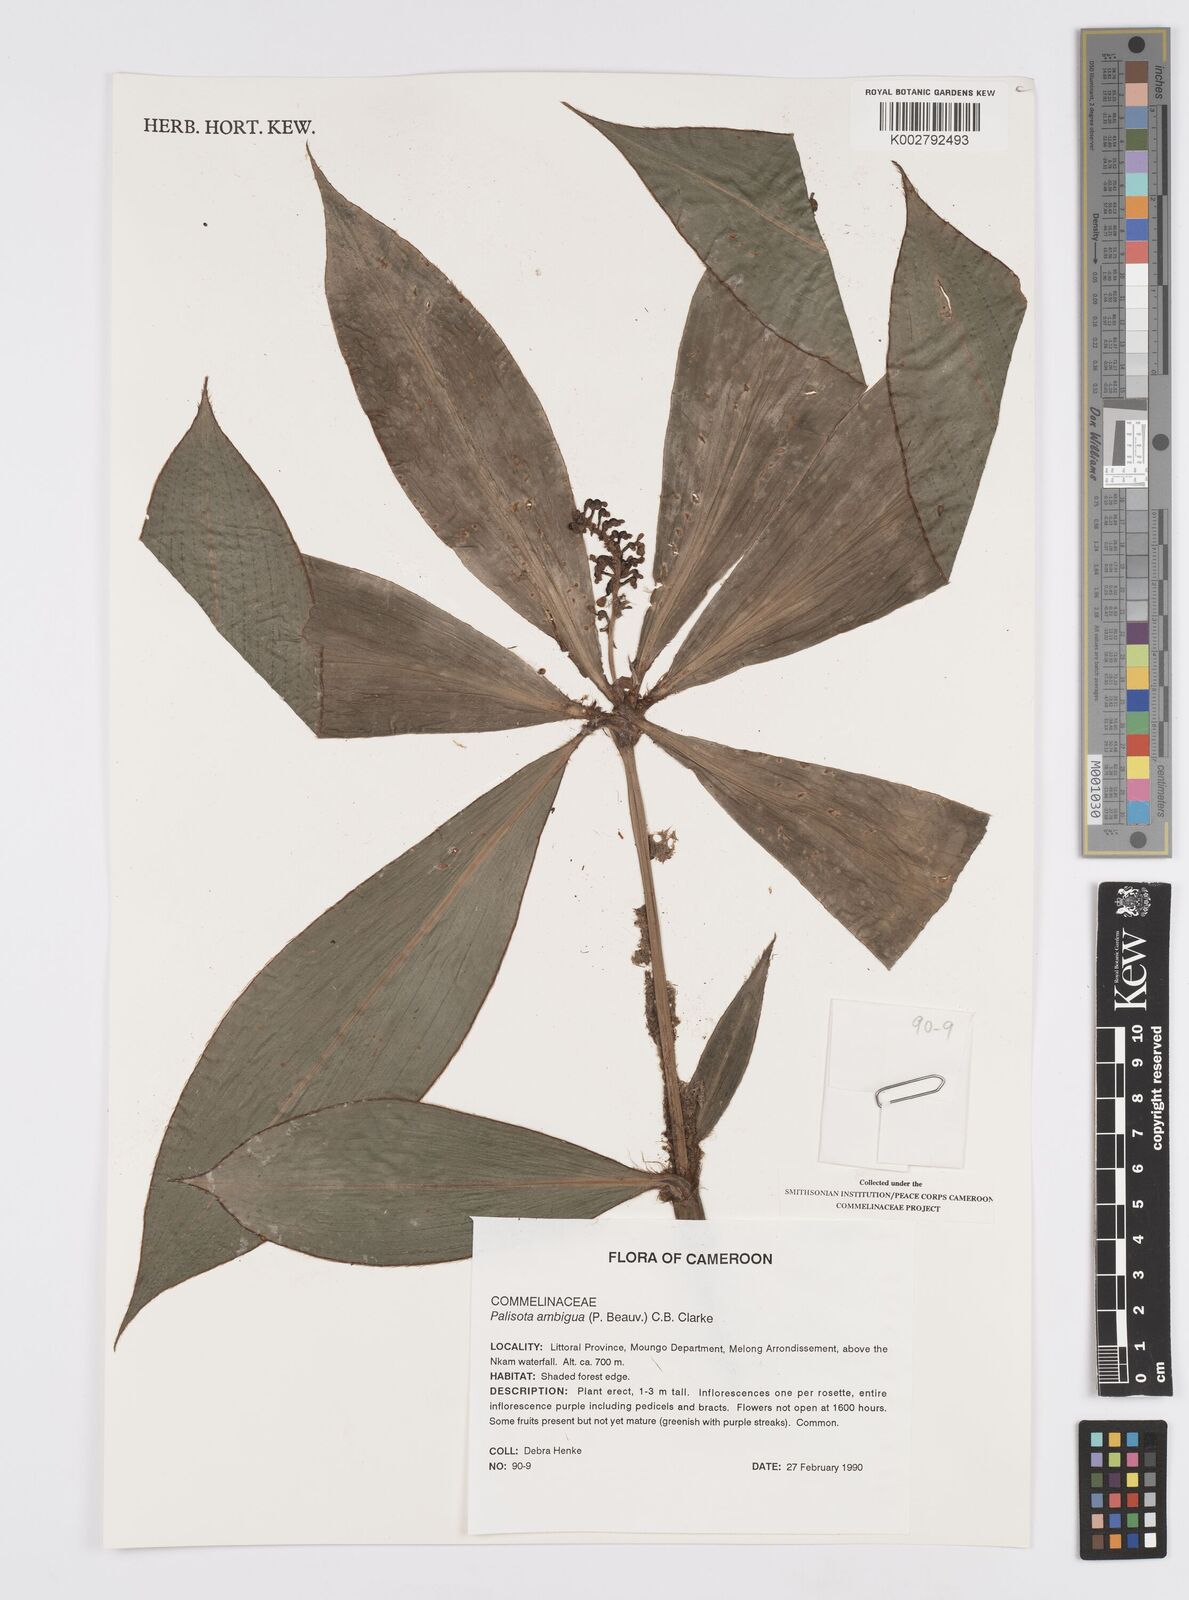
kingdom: Plantae
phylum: Tracheophyta
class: Liliopsida
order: Commelinales
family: Commelinaceae
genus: Palisota
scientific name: Palisota ambigua
